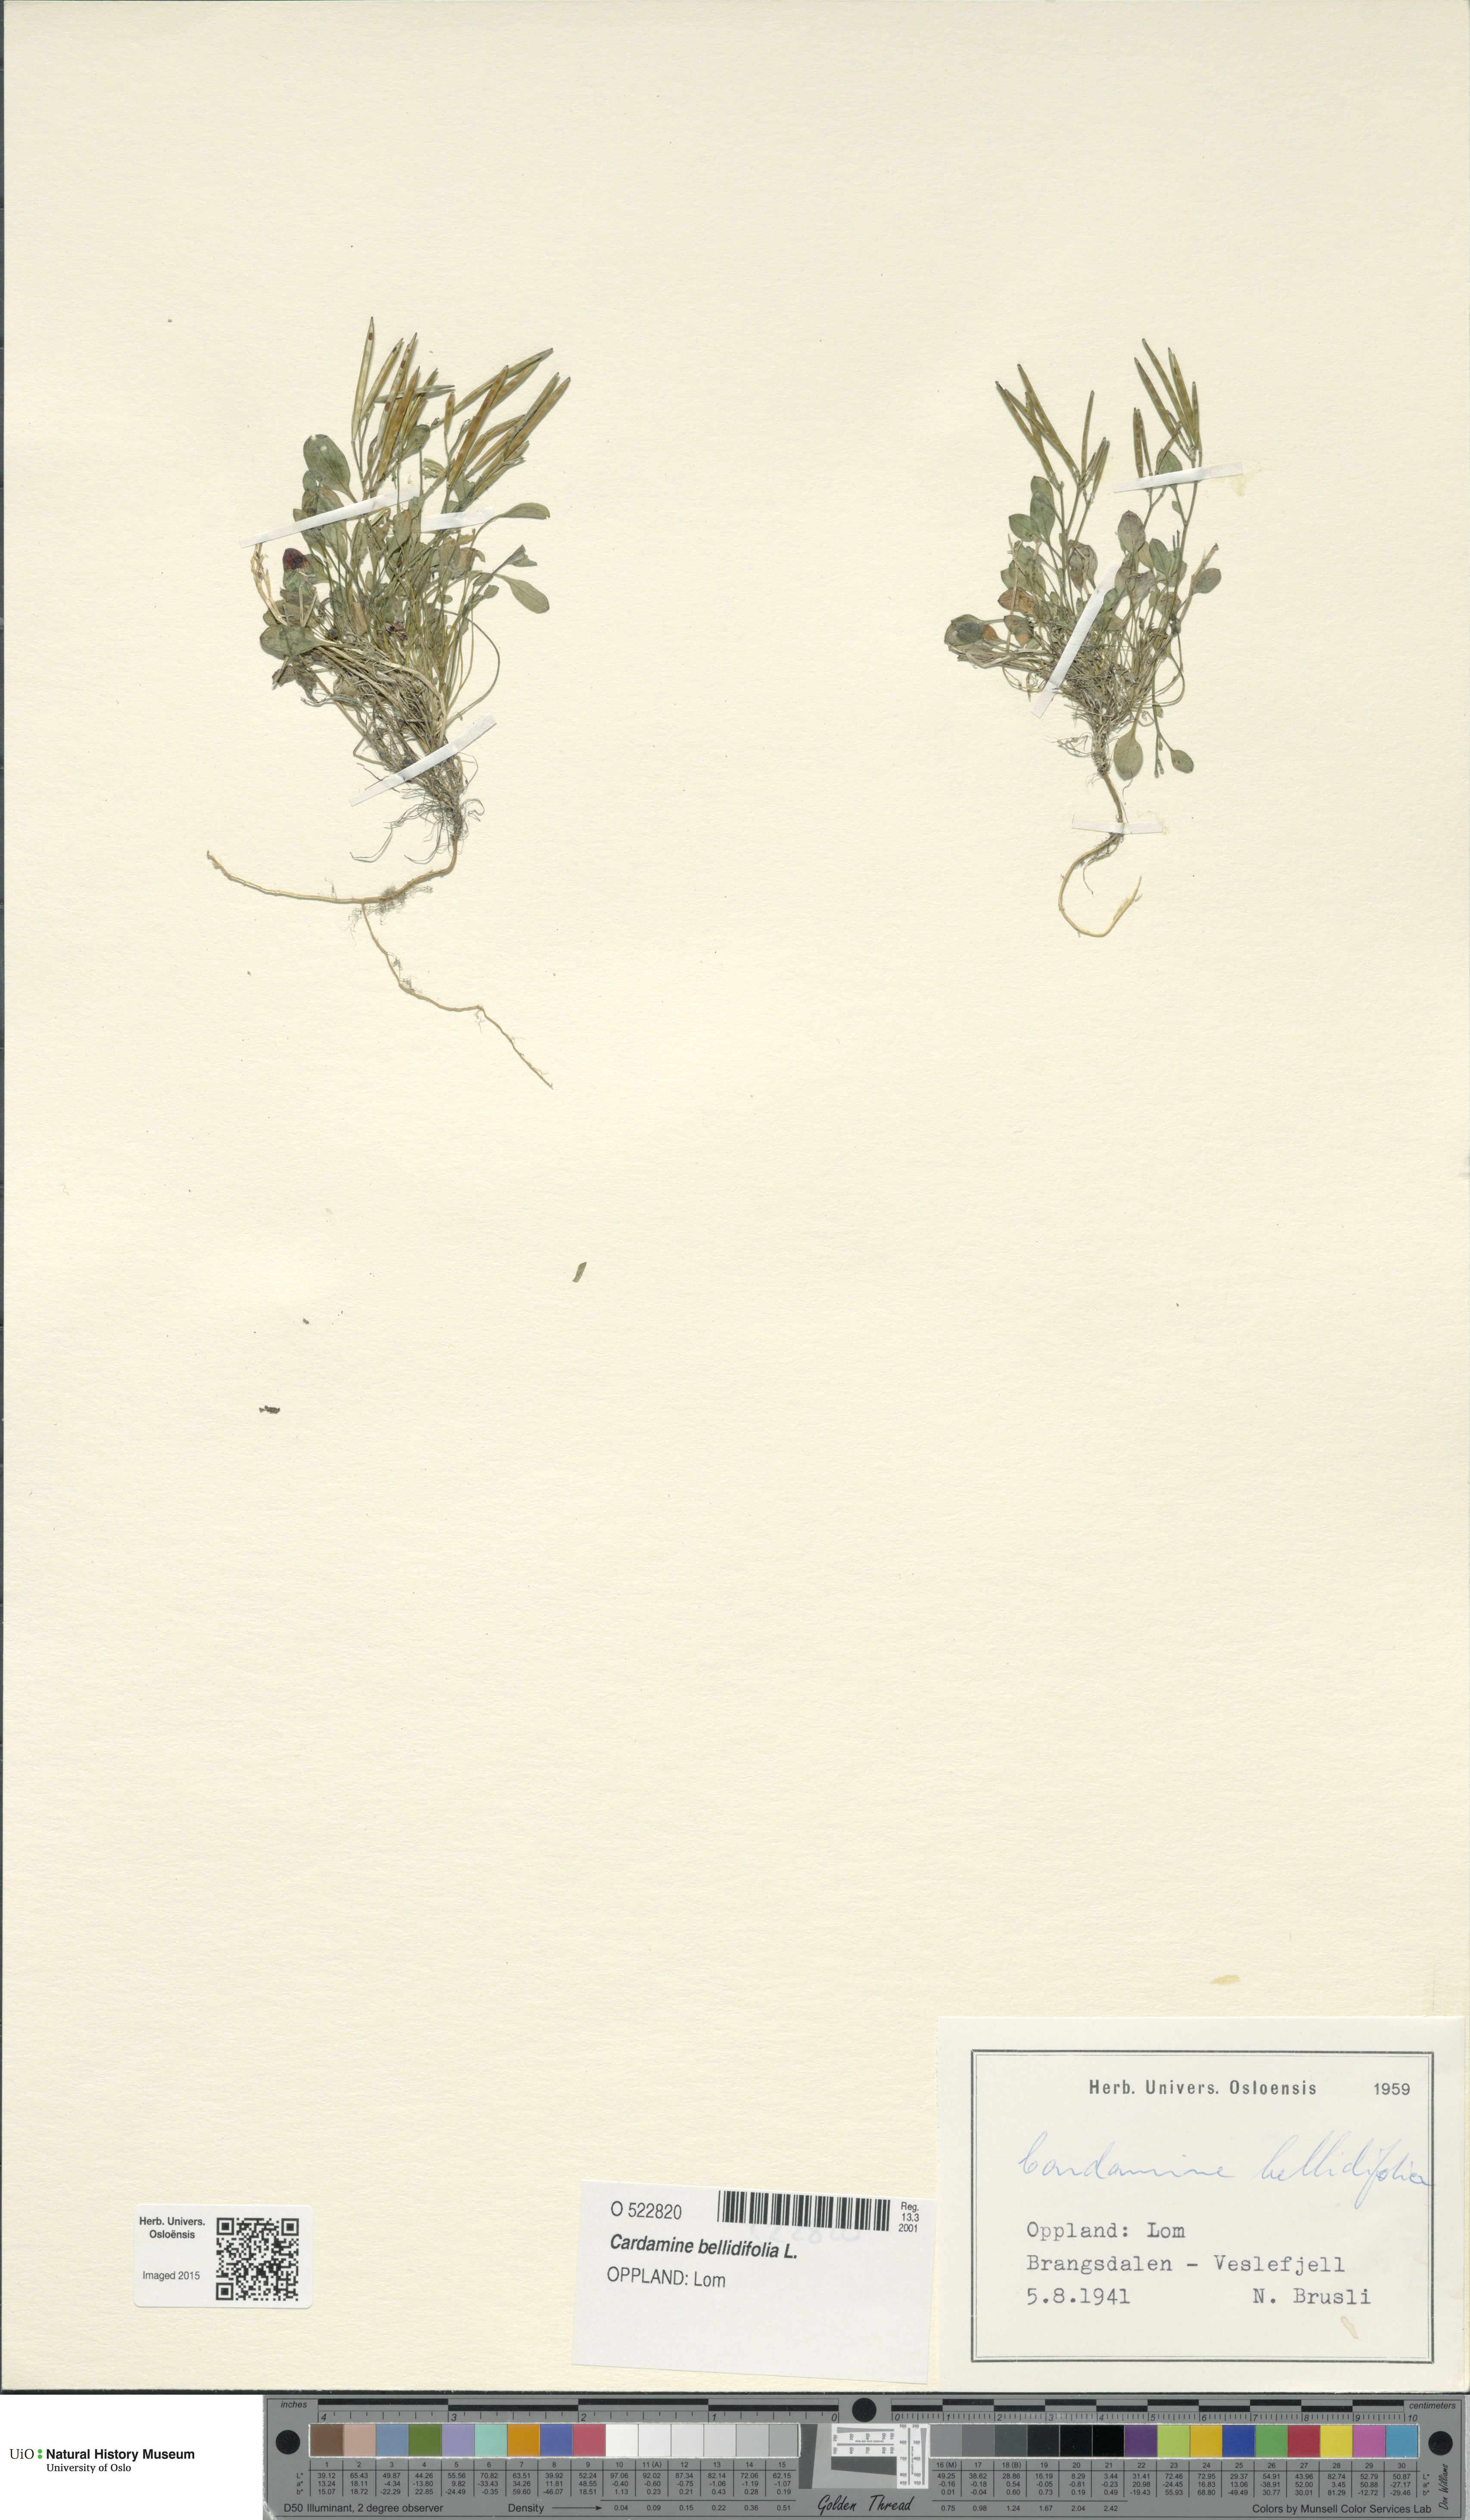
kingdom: Plantae
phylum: Tracheophyta
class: Magnoliopsida
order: Brassicales
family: Brassicaceae
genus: Cardamine
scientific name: Cardamine bellidifolia
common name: Alpine bittercress
